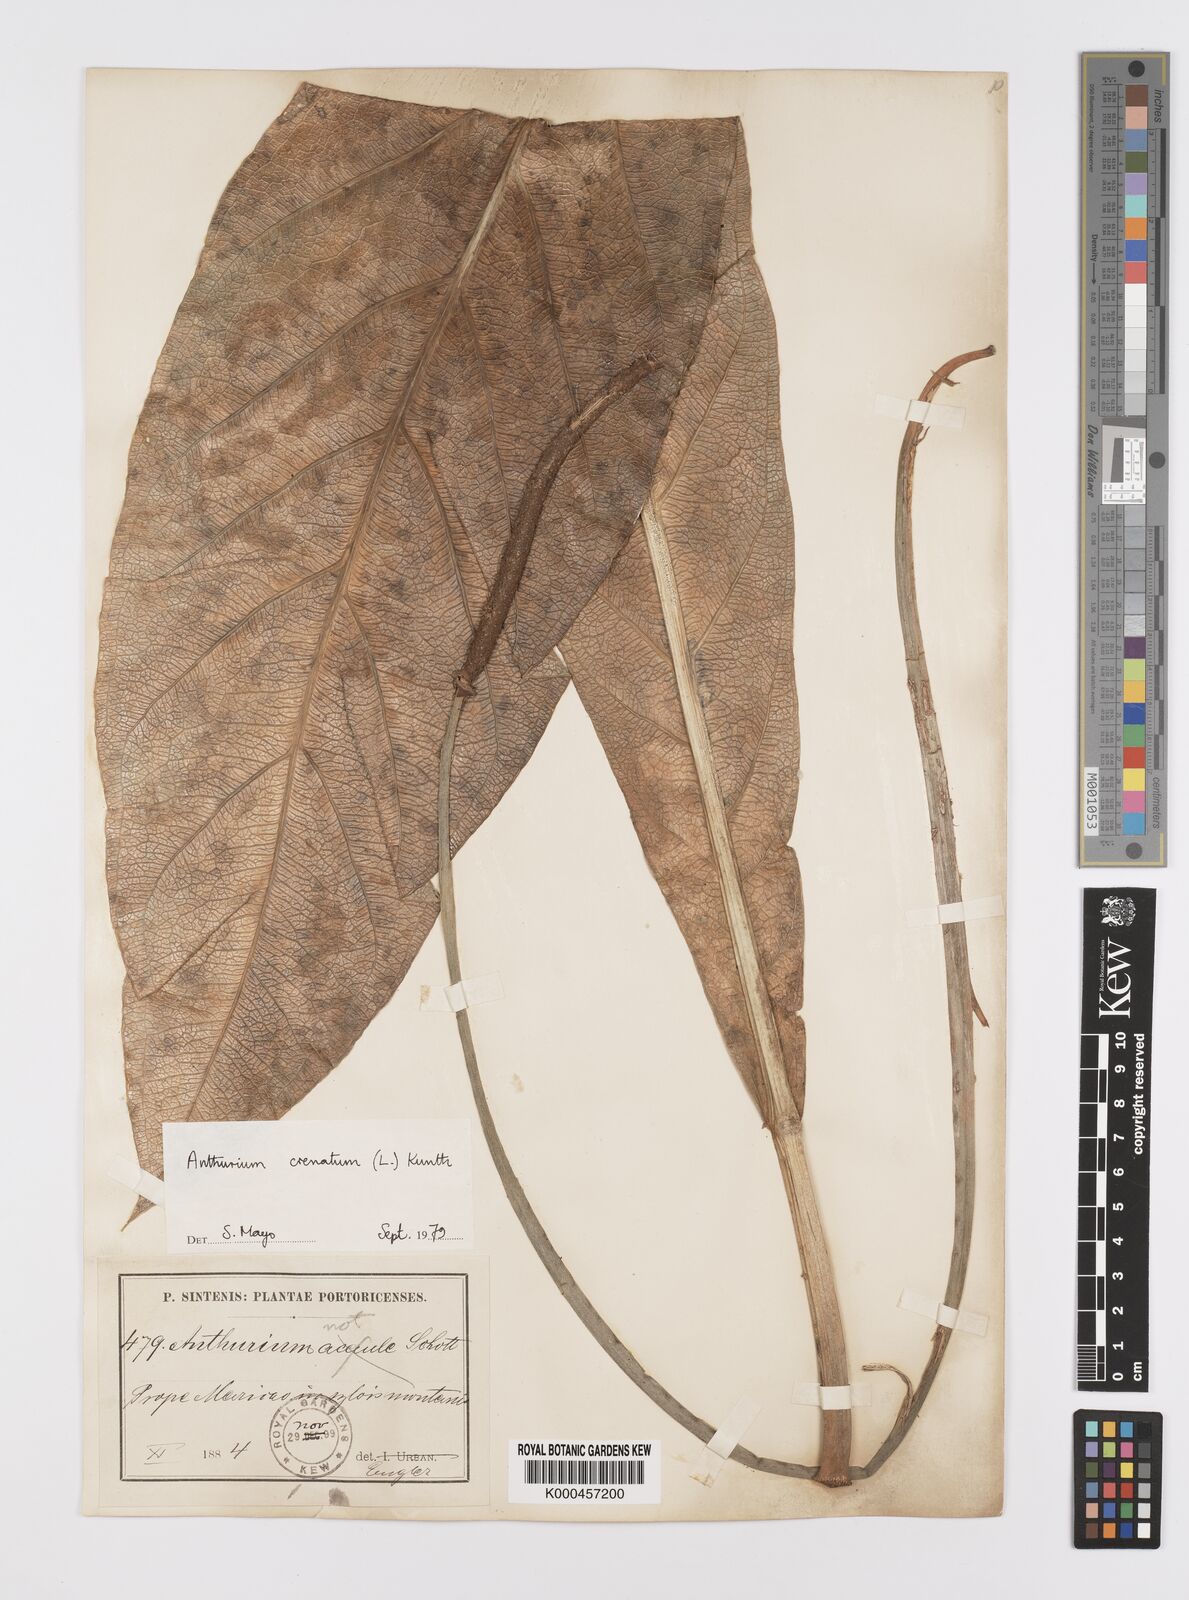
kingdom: Plantae
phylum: Tracheophyta
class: Liliopsida
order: Alismatales
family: Araceae
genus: Anthurium
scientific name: Anthurium crenatum
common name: Scalloped laceleaf
